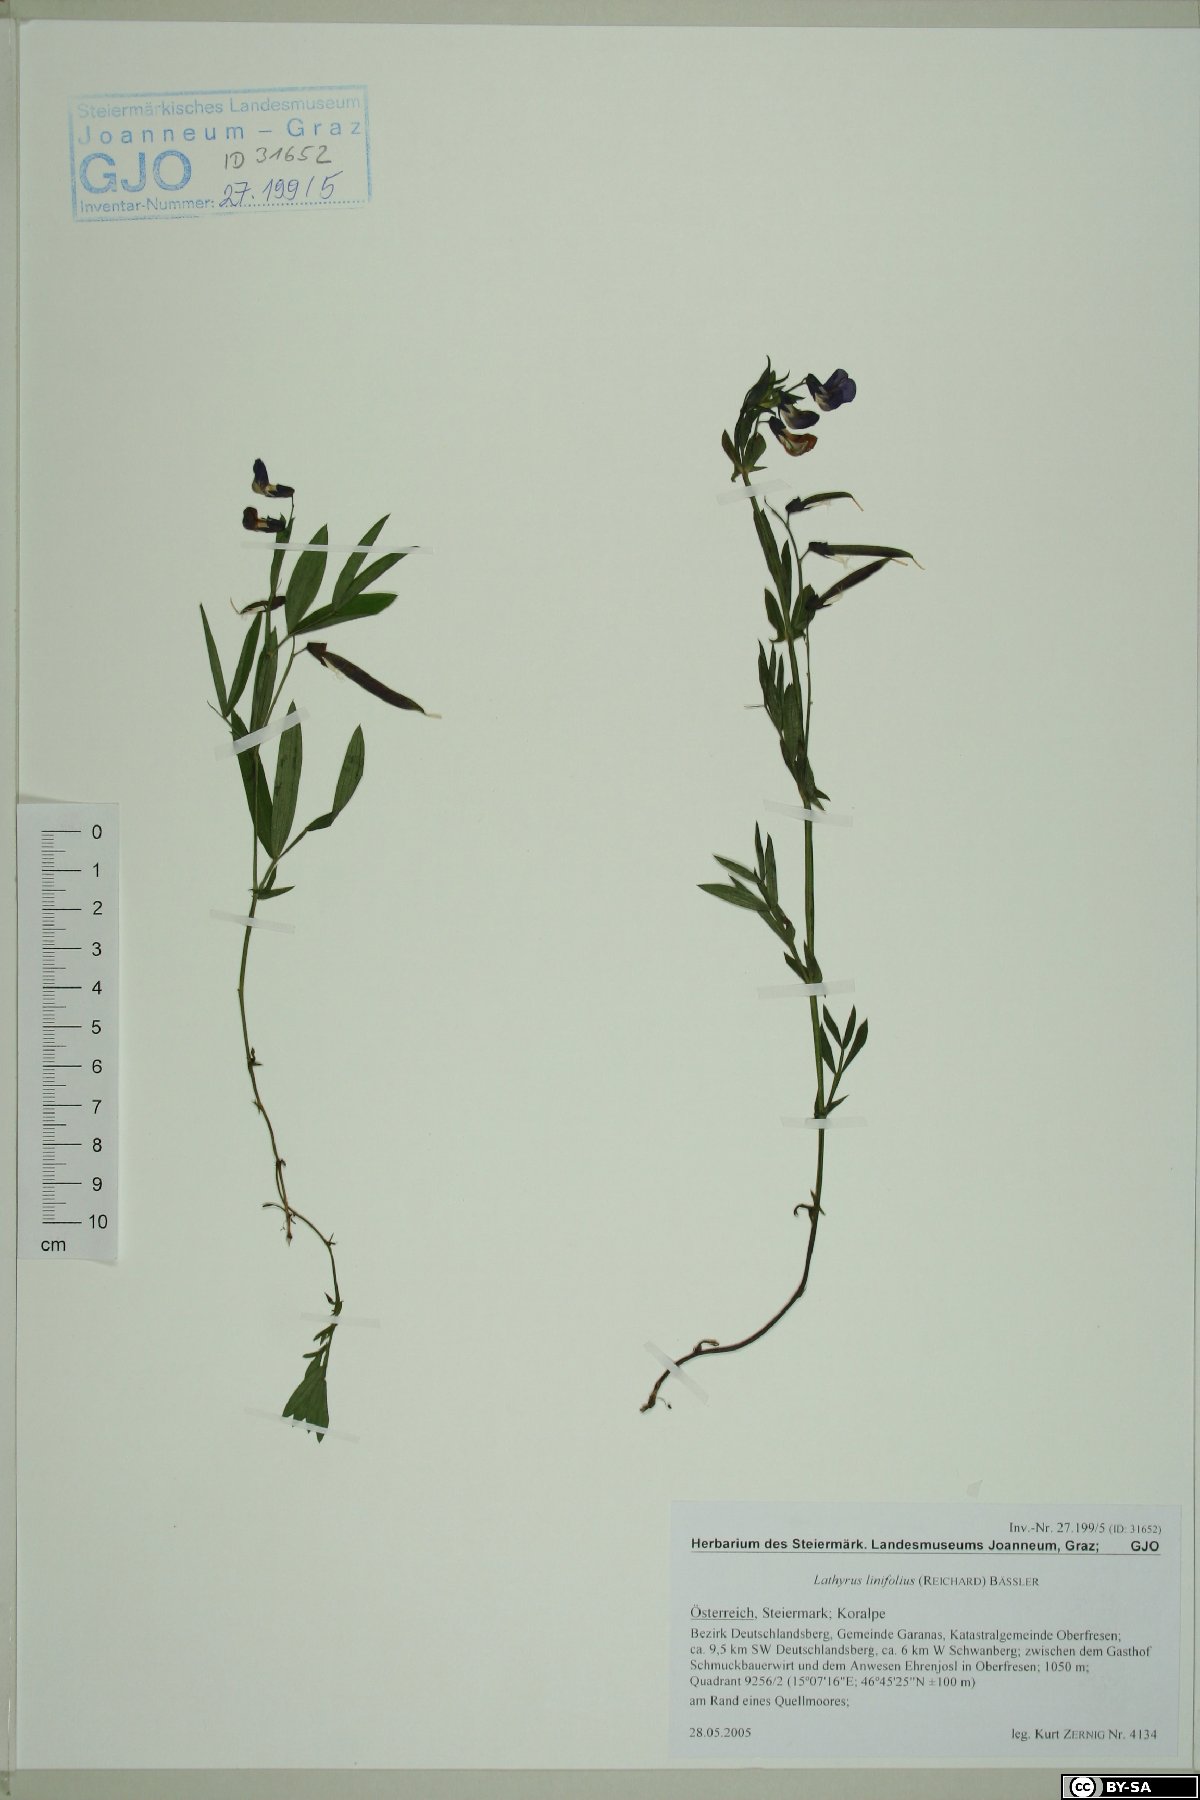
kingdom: Plantae
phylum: Tracheophyta
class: Magnoliopsida
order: Fabales
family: Fabaceae
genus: Lathyrus
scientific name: Lathyrus linifolius
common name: Bitter-vetch
